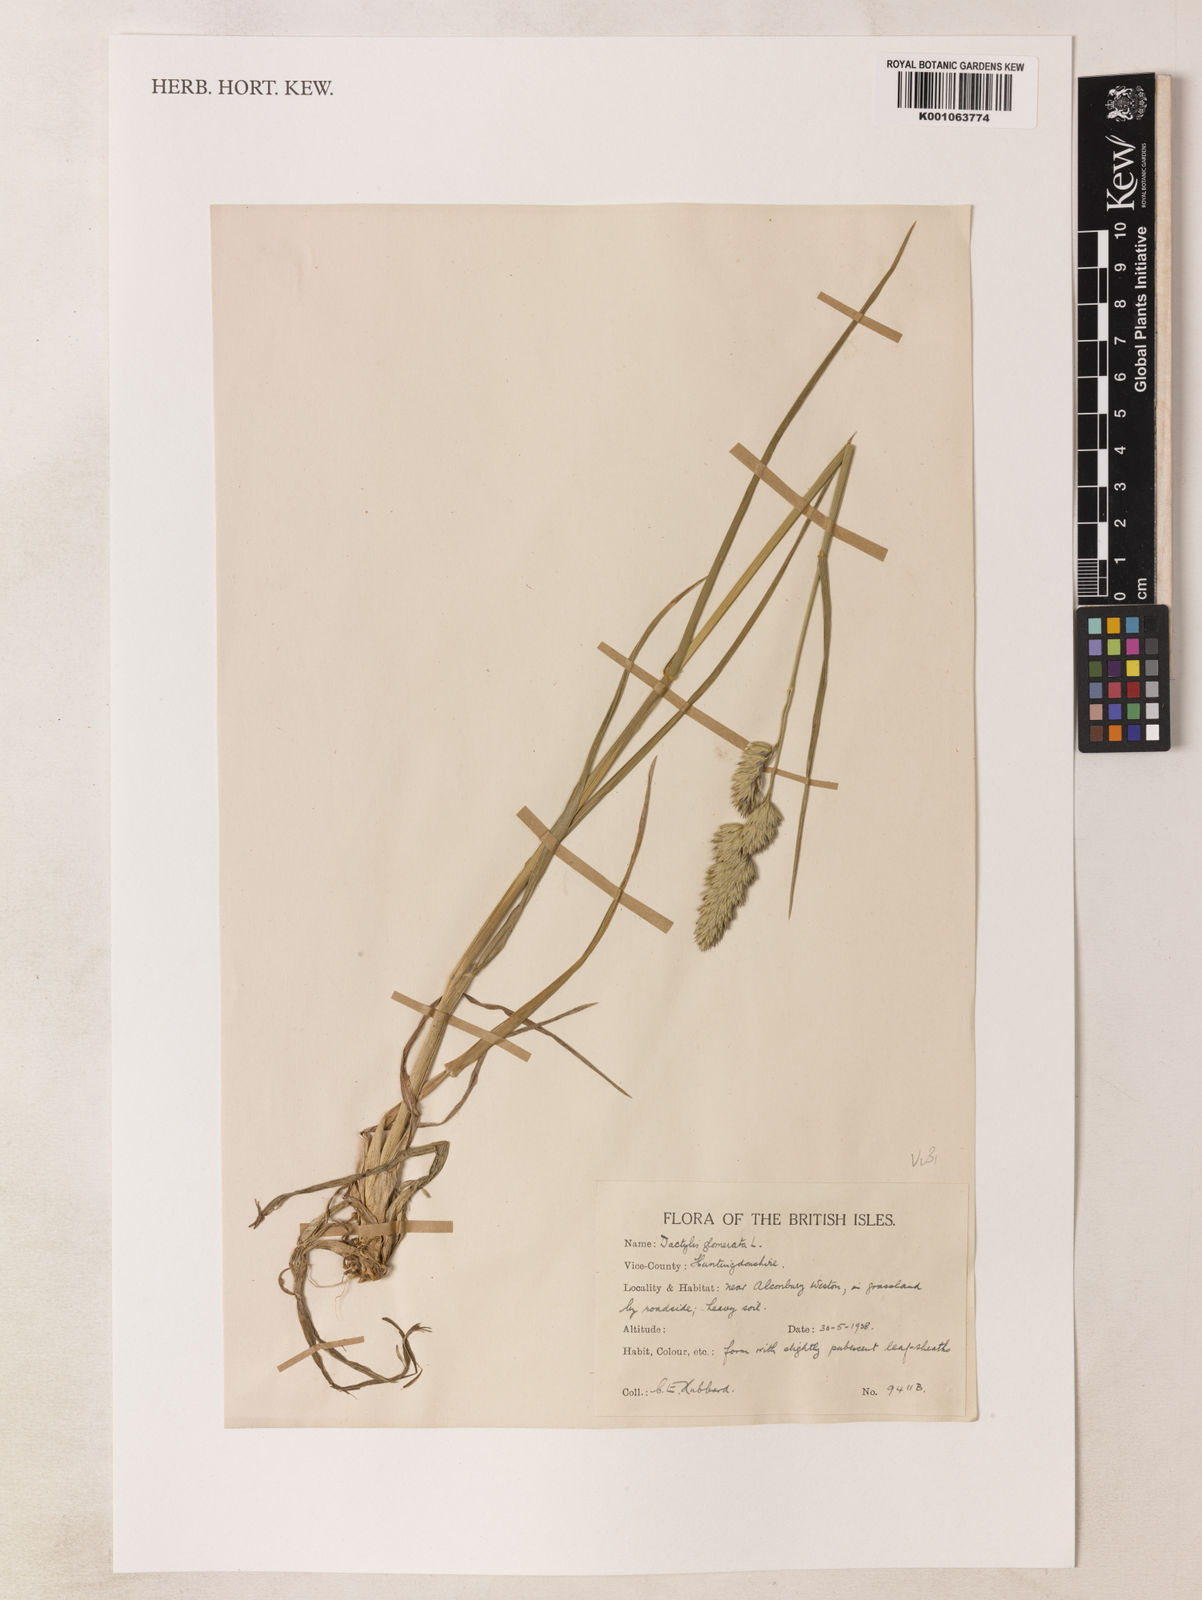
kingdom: Plantae
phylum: Tracheophyta
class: Liliopsida
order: Poales
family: Poaceae
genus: Dactylis
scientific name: Dactylis glomerata
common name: Orchardgrass
